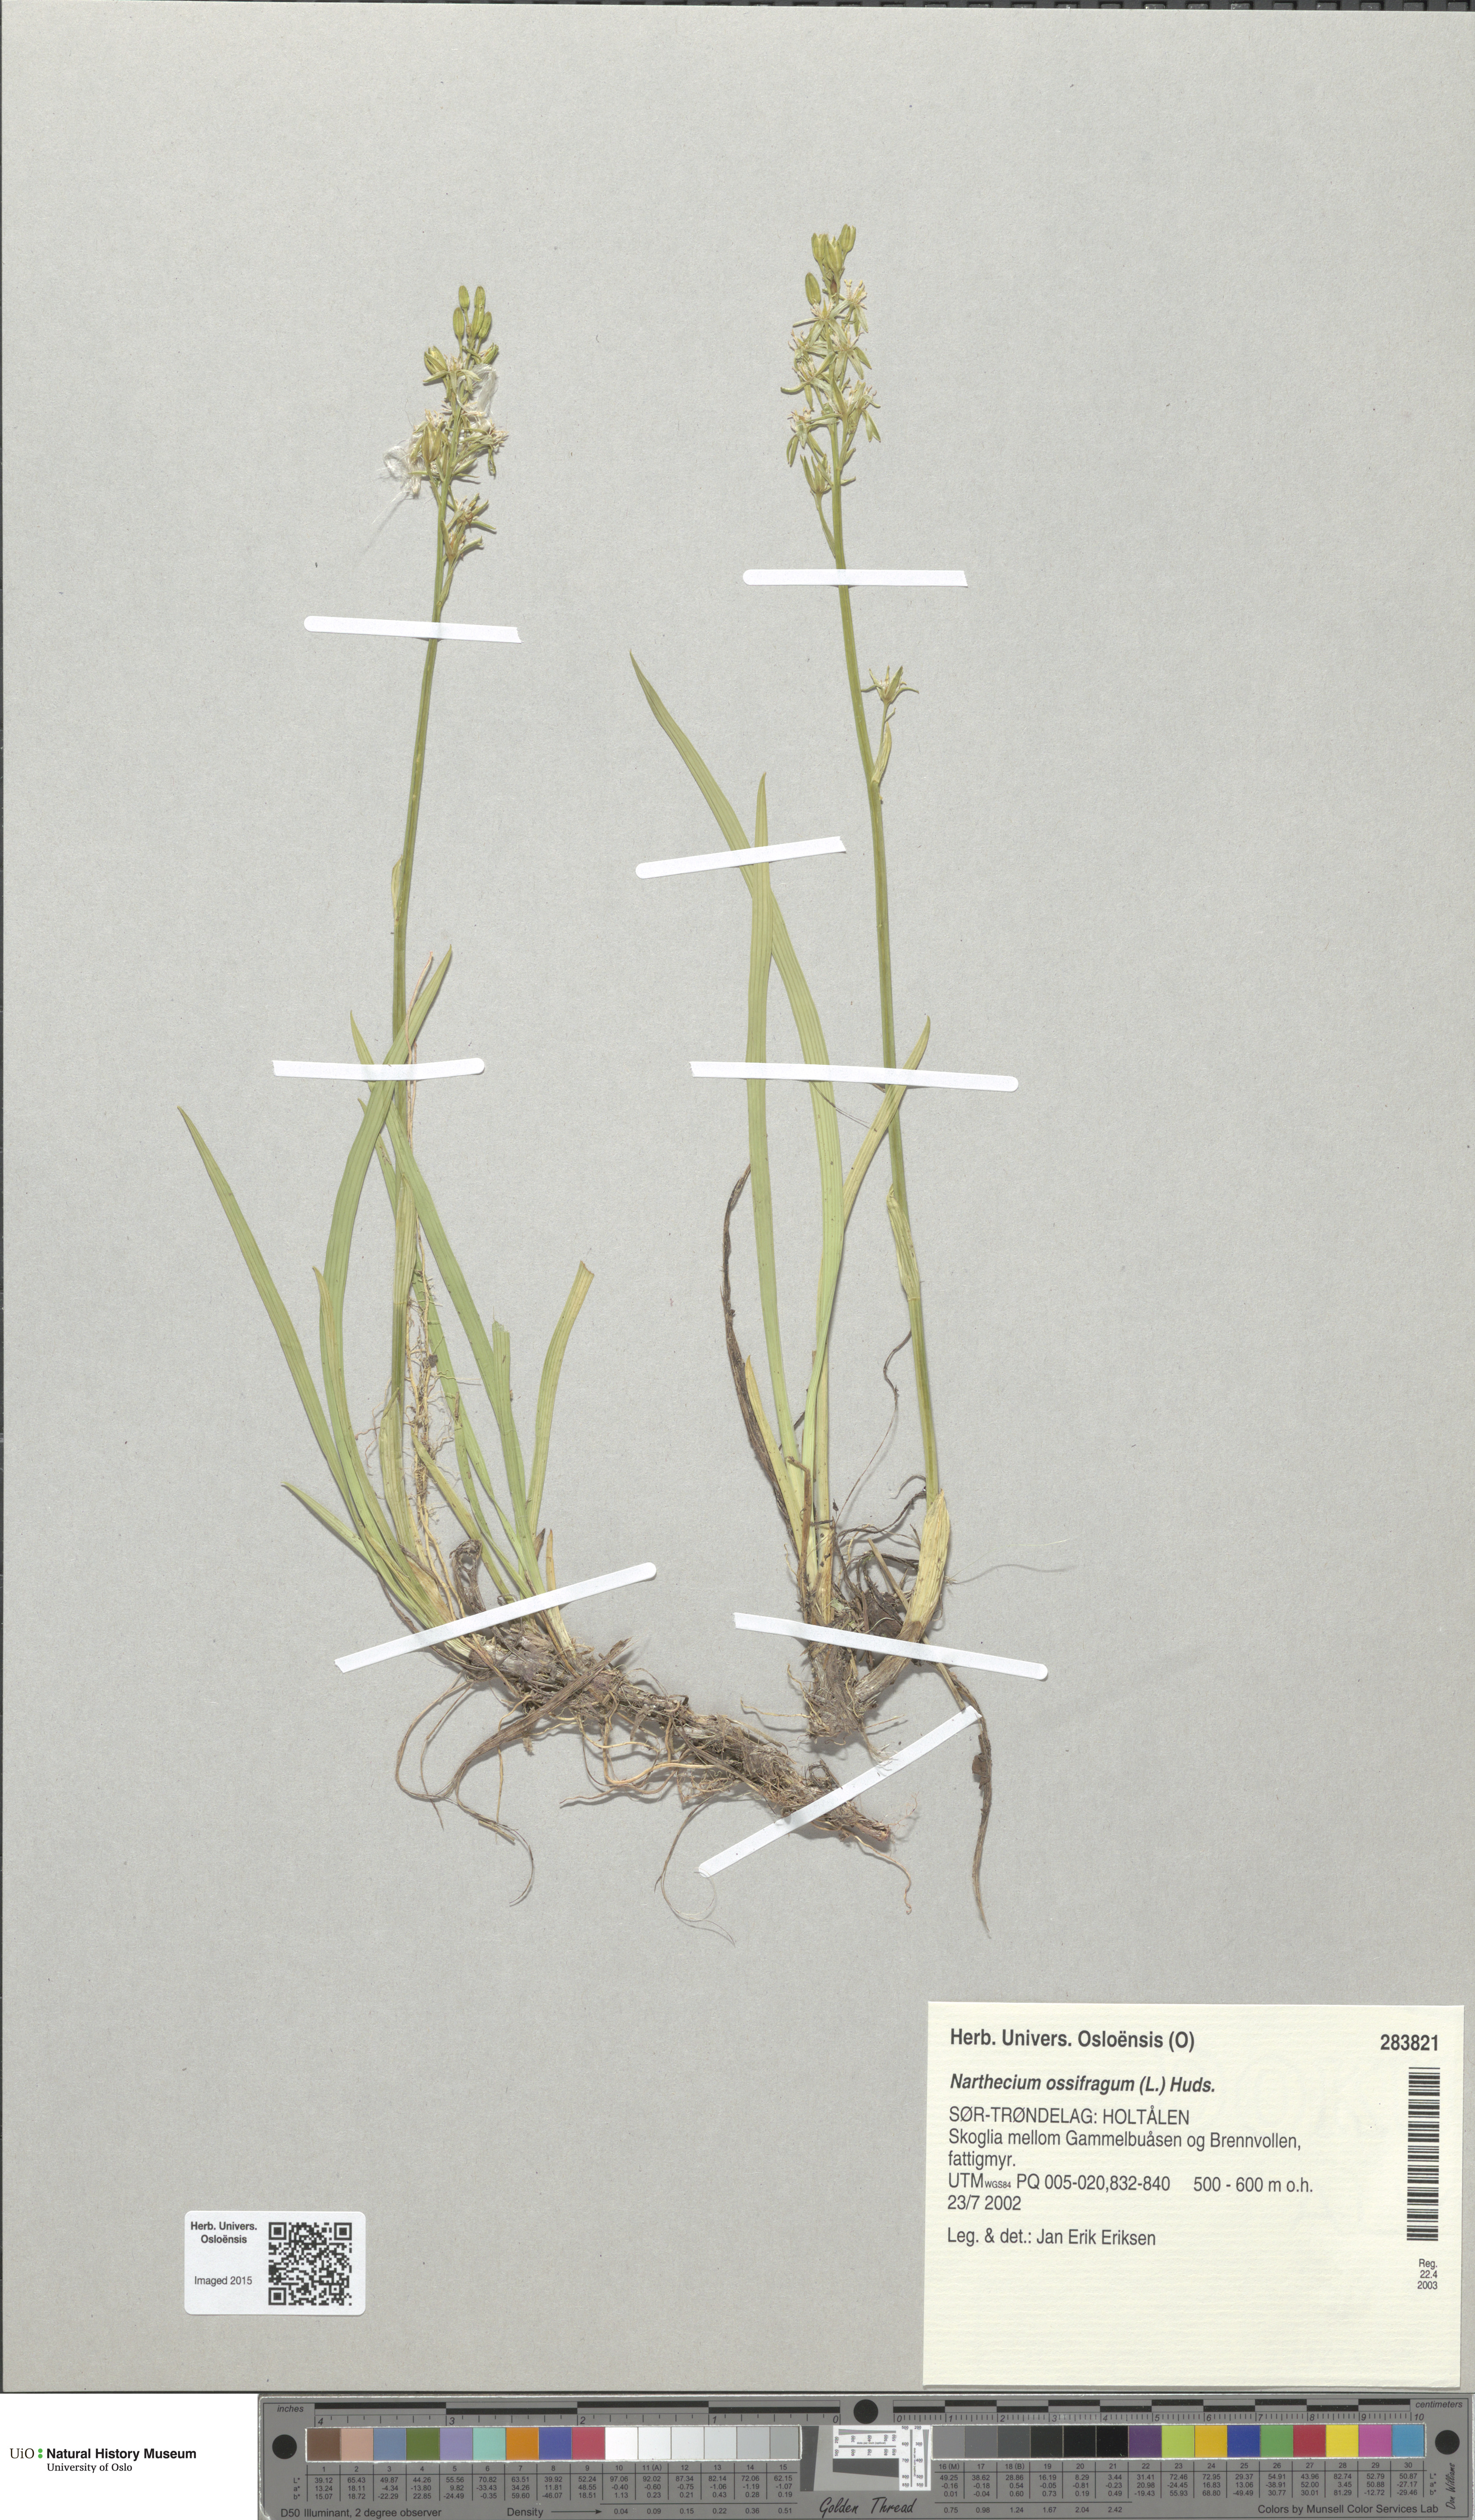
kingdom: Plantae
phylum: Tracheophyta
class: Liliopsida
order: Dioscoreales
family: Nartheciaceae
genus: Narthecium
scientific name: Narthecium ossifragum
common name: Bog asphodel
